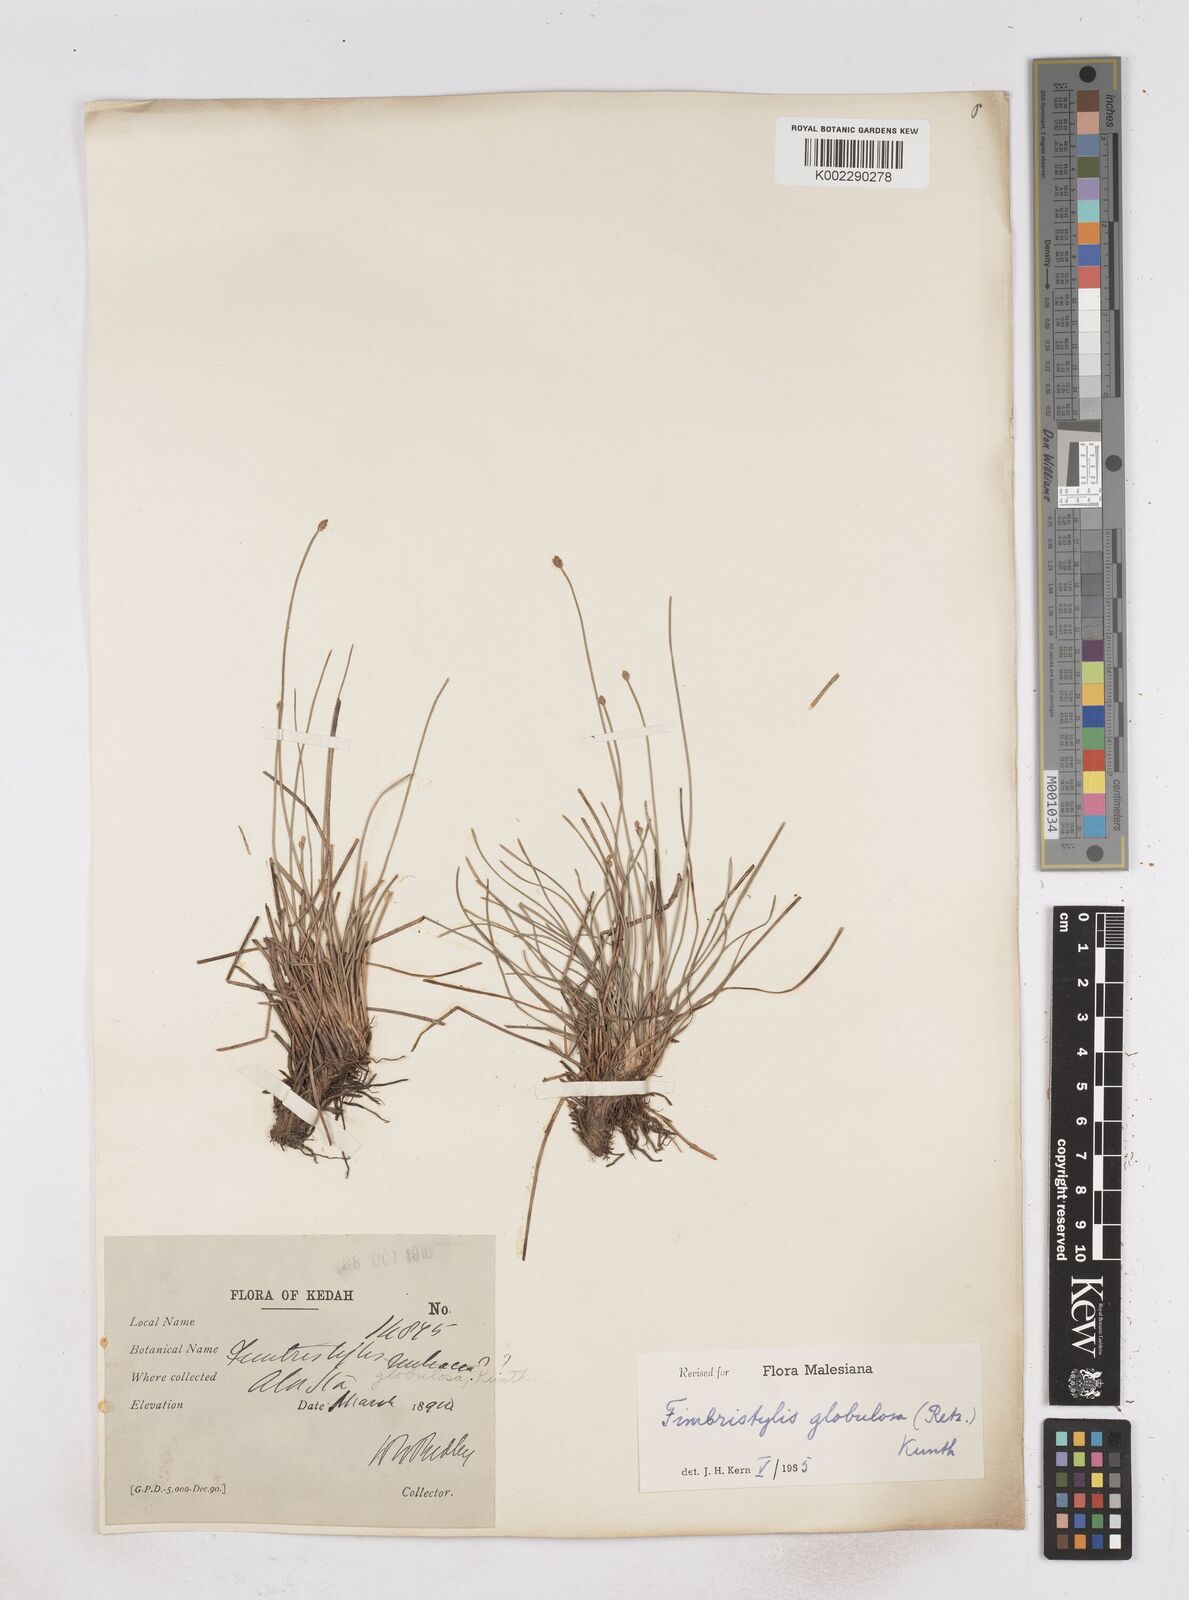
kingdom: Plantae
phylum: Tracheophyta
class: Liliopsida
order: Poales
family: Cyperaceae
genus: Fimbristylis
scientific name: Fimbristylis umbellaris
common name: Globular fimbristylis
